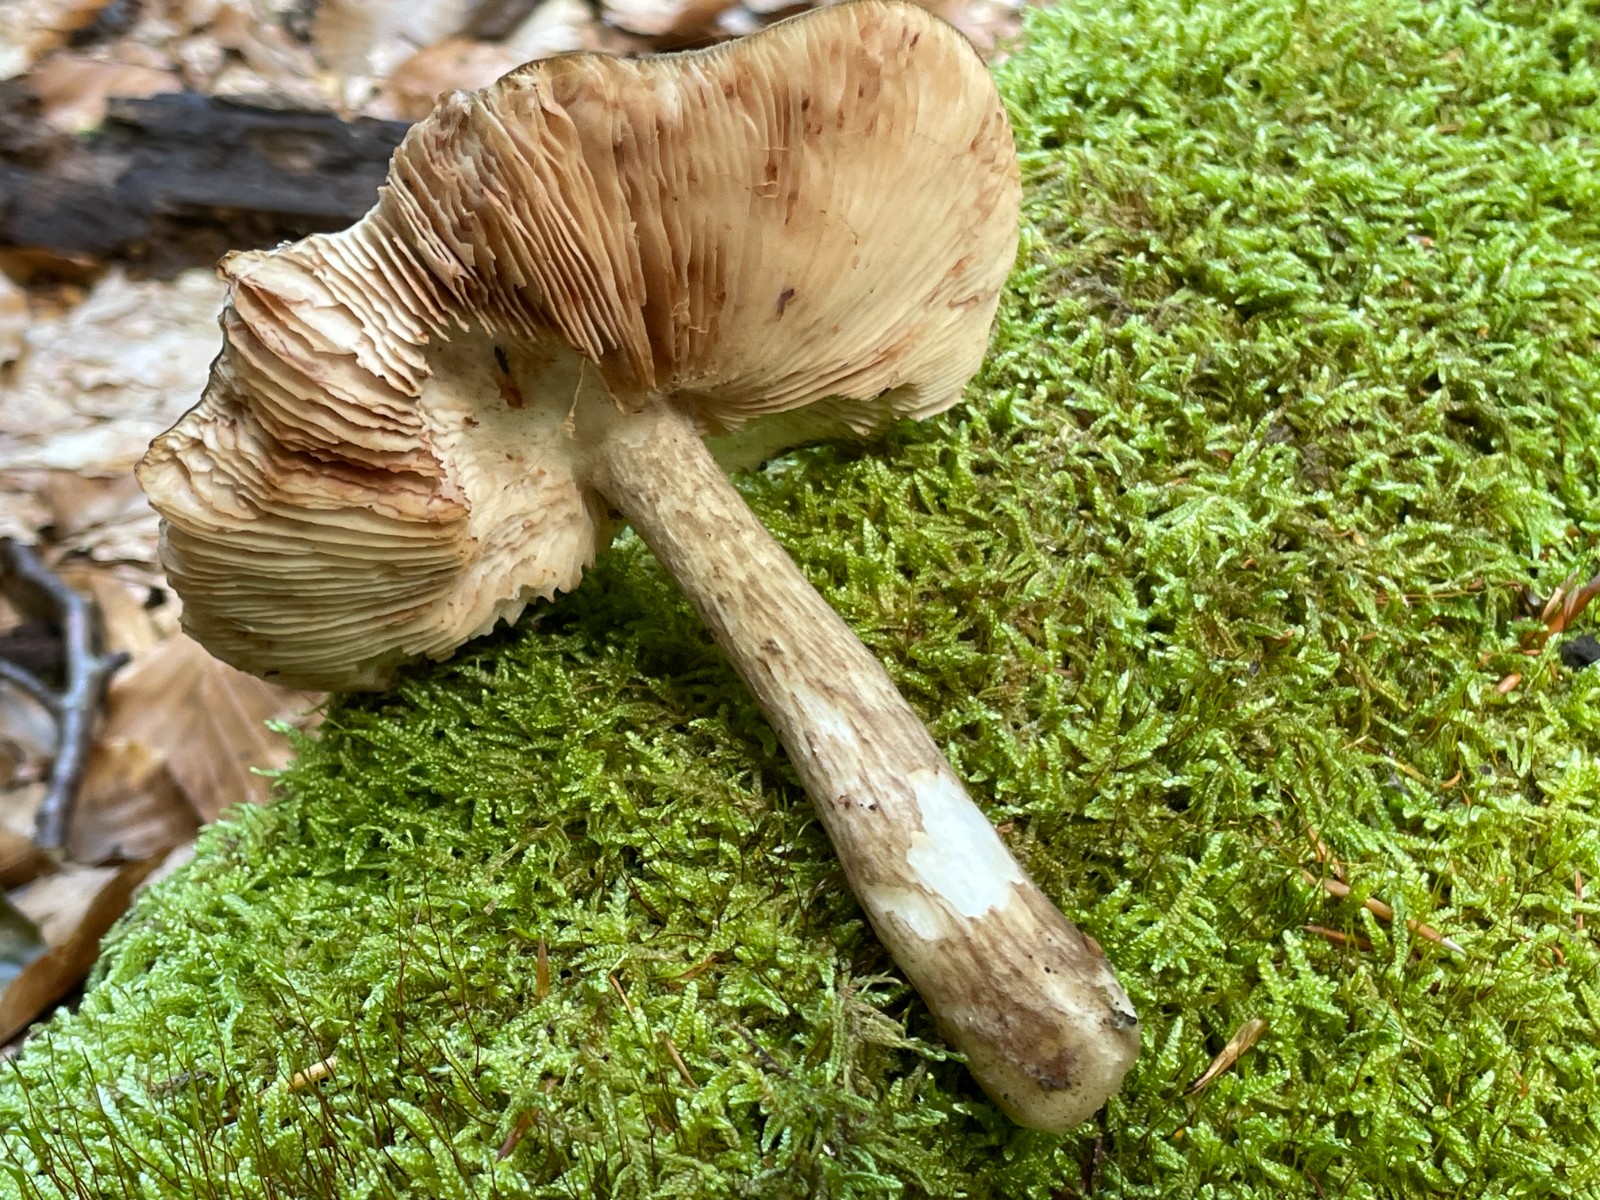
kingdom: Fungi
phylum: Basidiomycota
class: Agaricomycetes
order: Agaricales
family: Pluteaceae
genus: Pluteus
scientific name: Pluteus cervinus
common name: sodfarvet skærmhat
